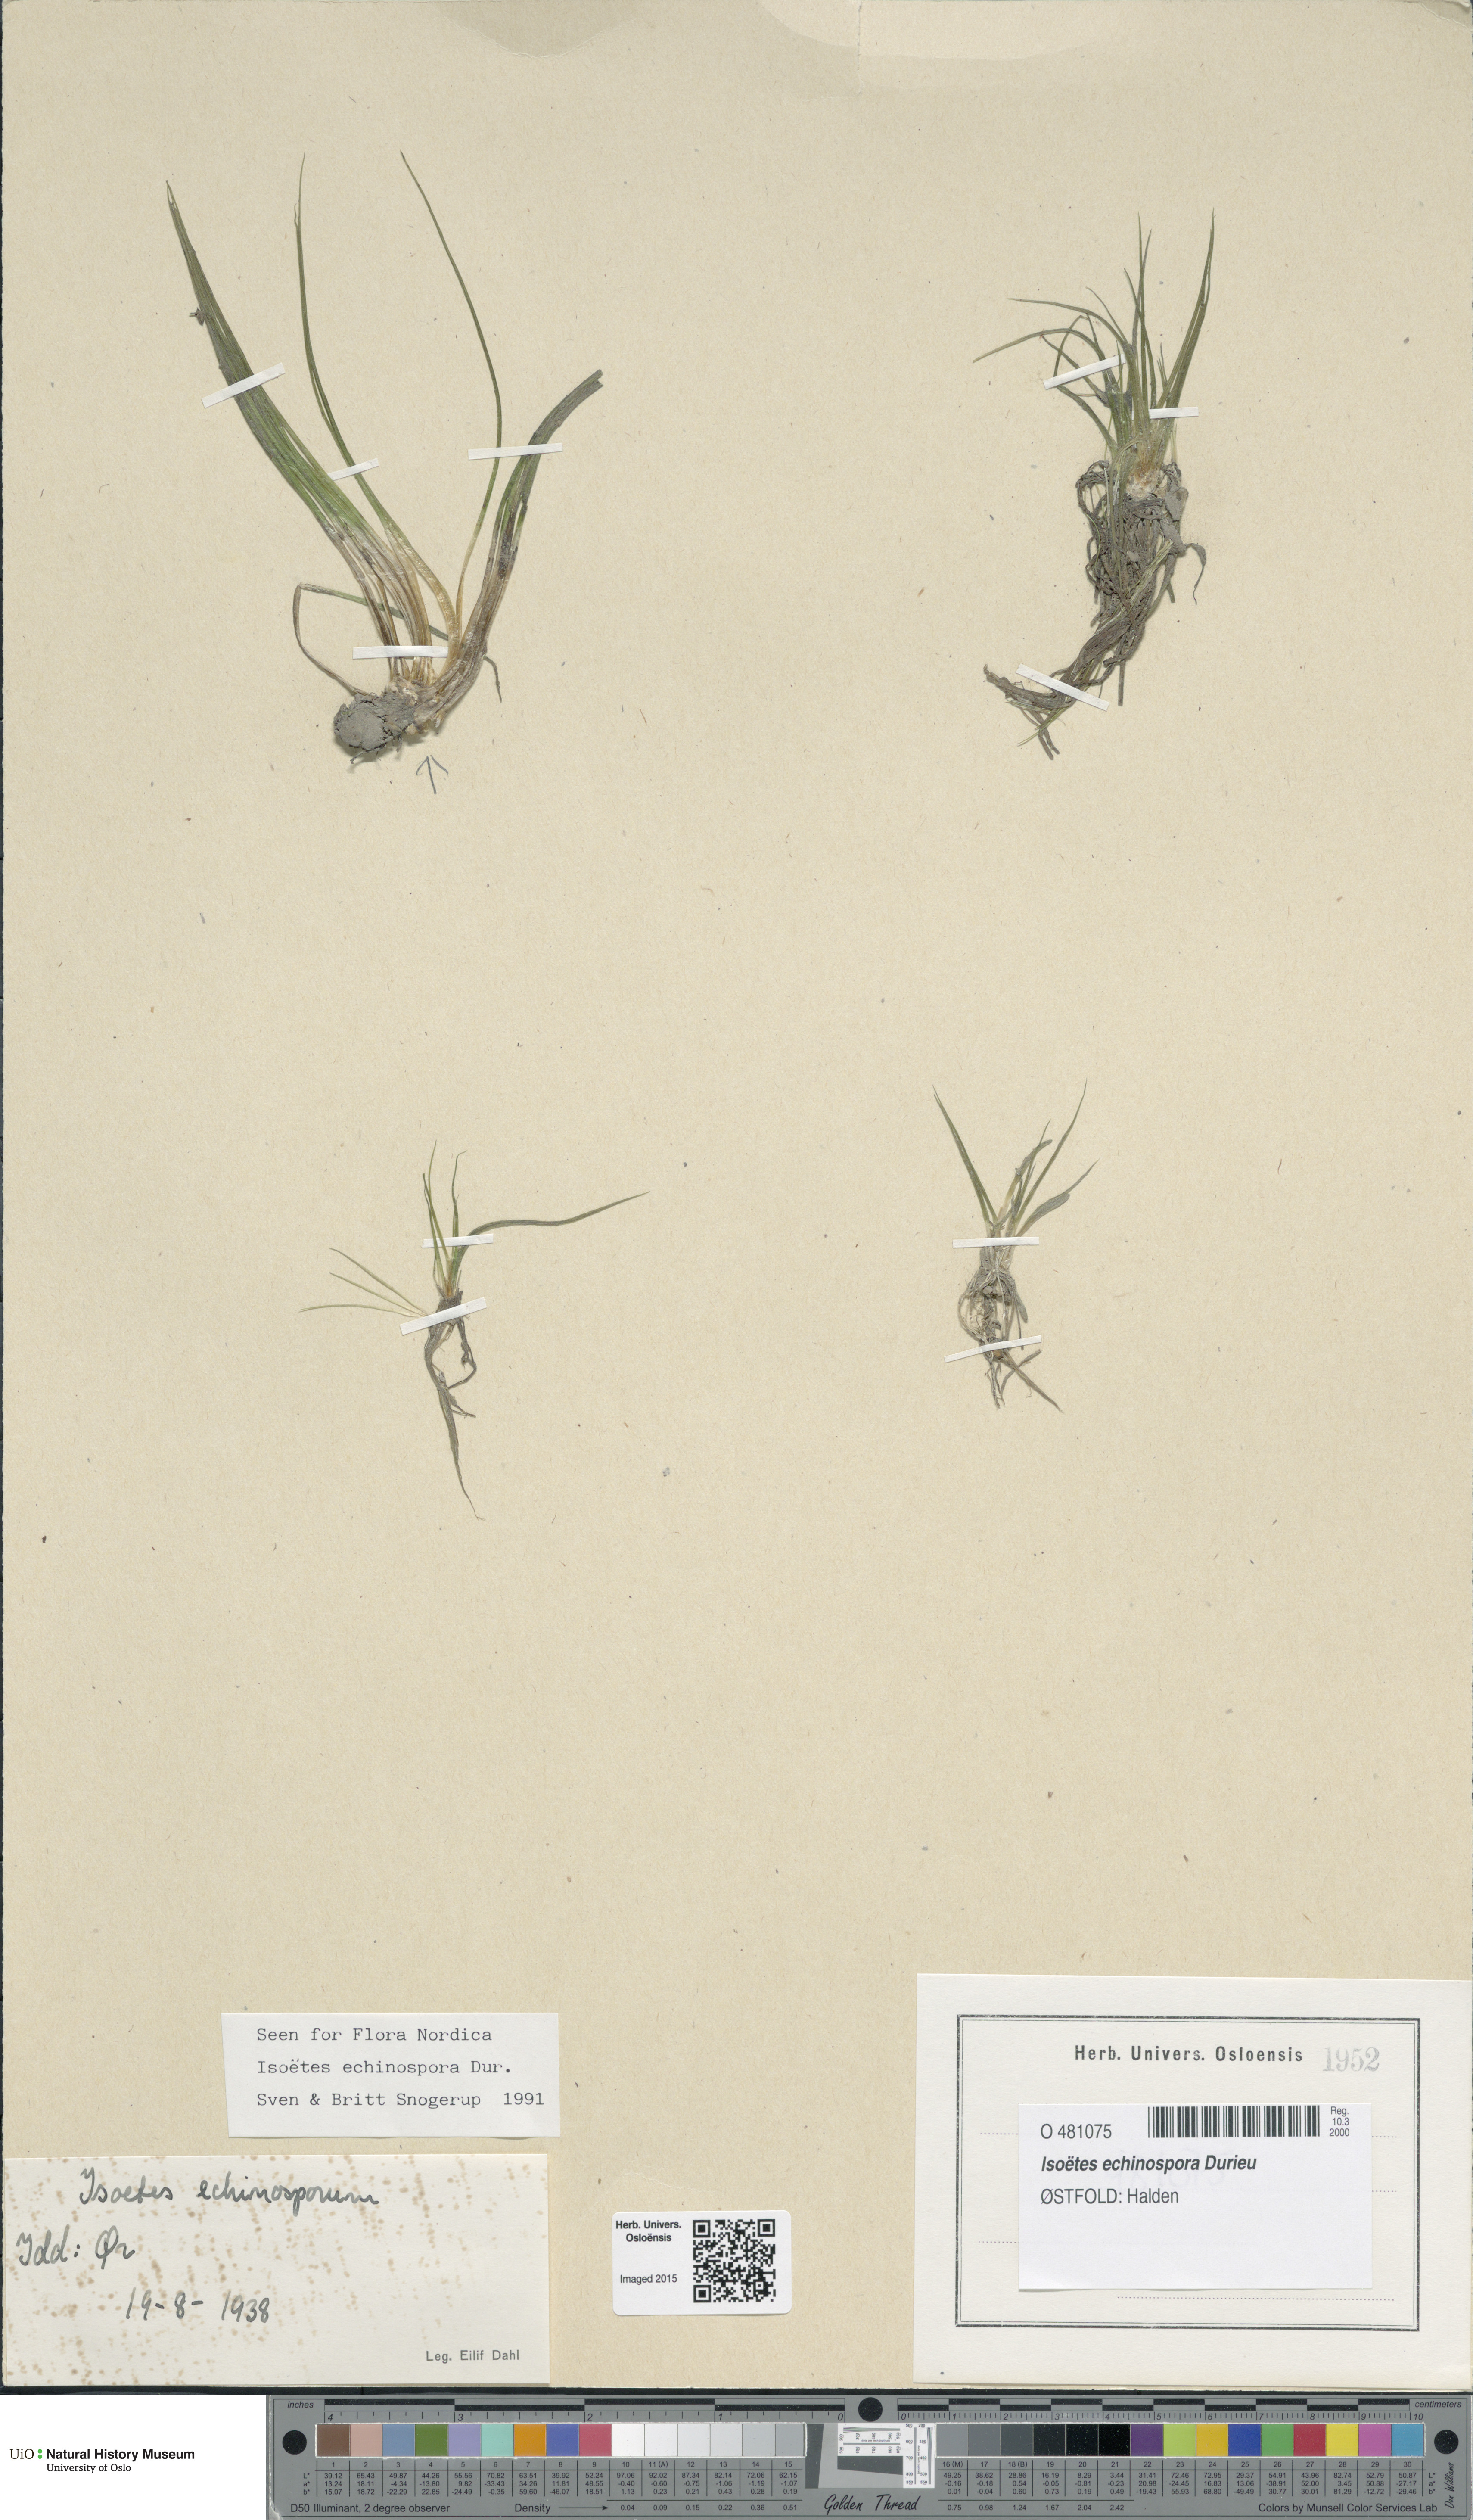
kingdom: Plantae
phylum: Tracheophyta
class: Lycopodiopsida
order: Isoetales
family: Isoetaceae
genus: Isoetes
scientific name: Isoetes echinospora
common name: Spring quillwort
